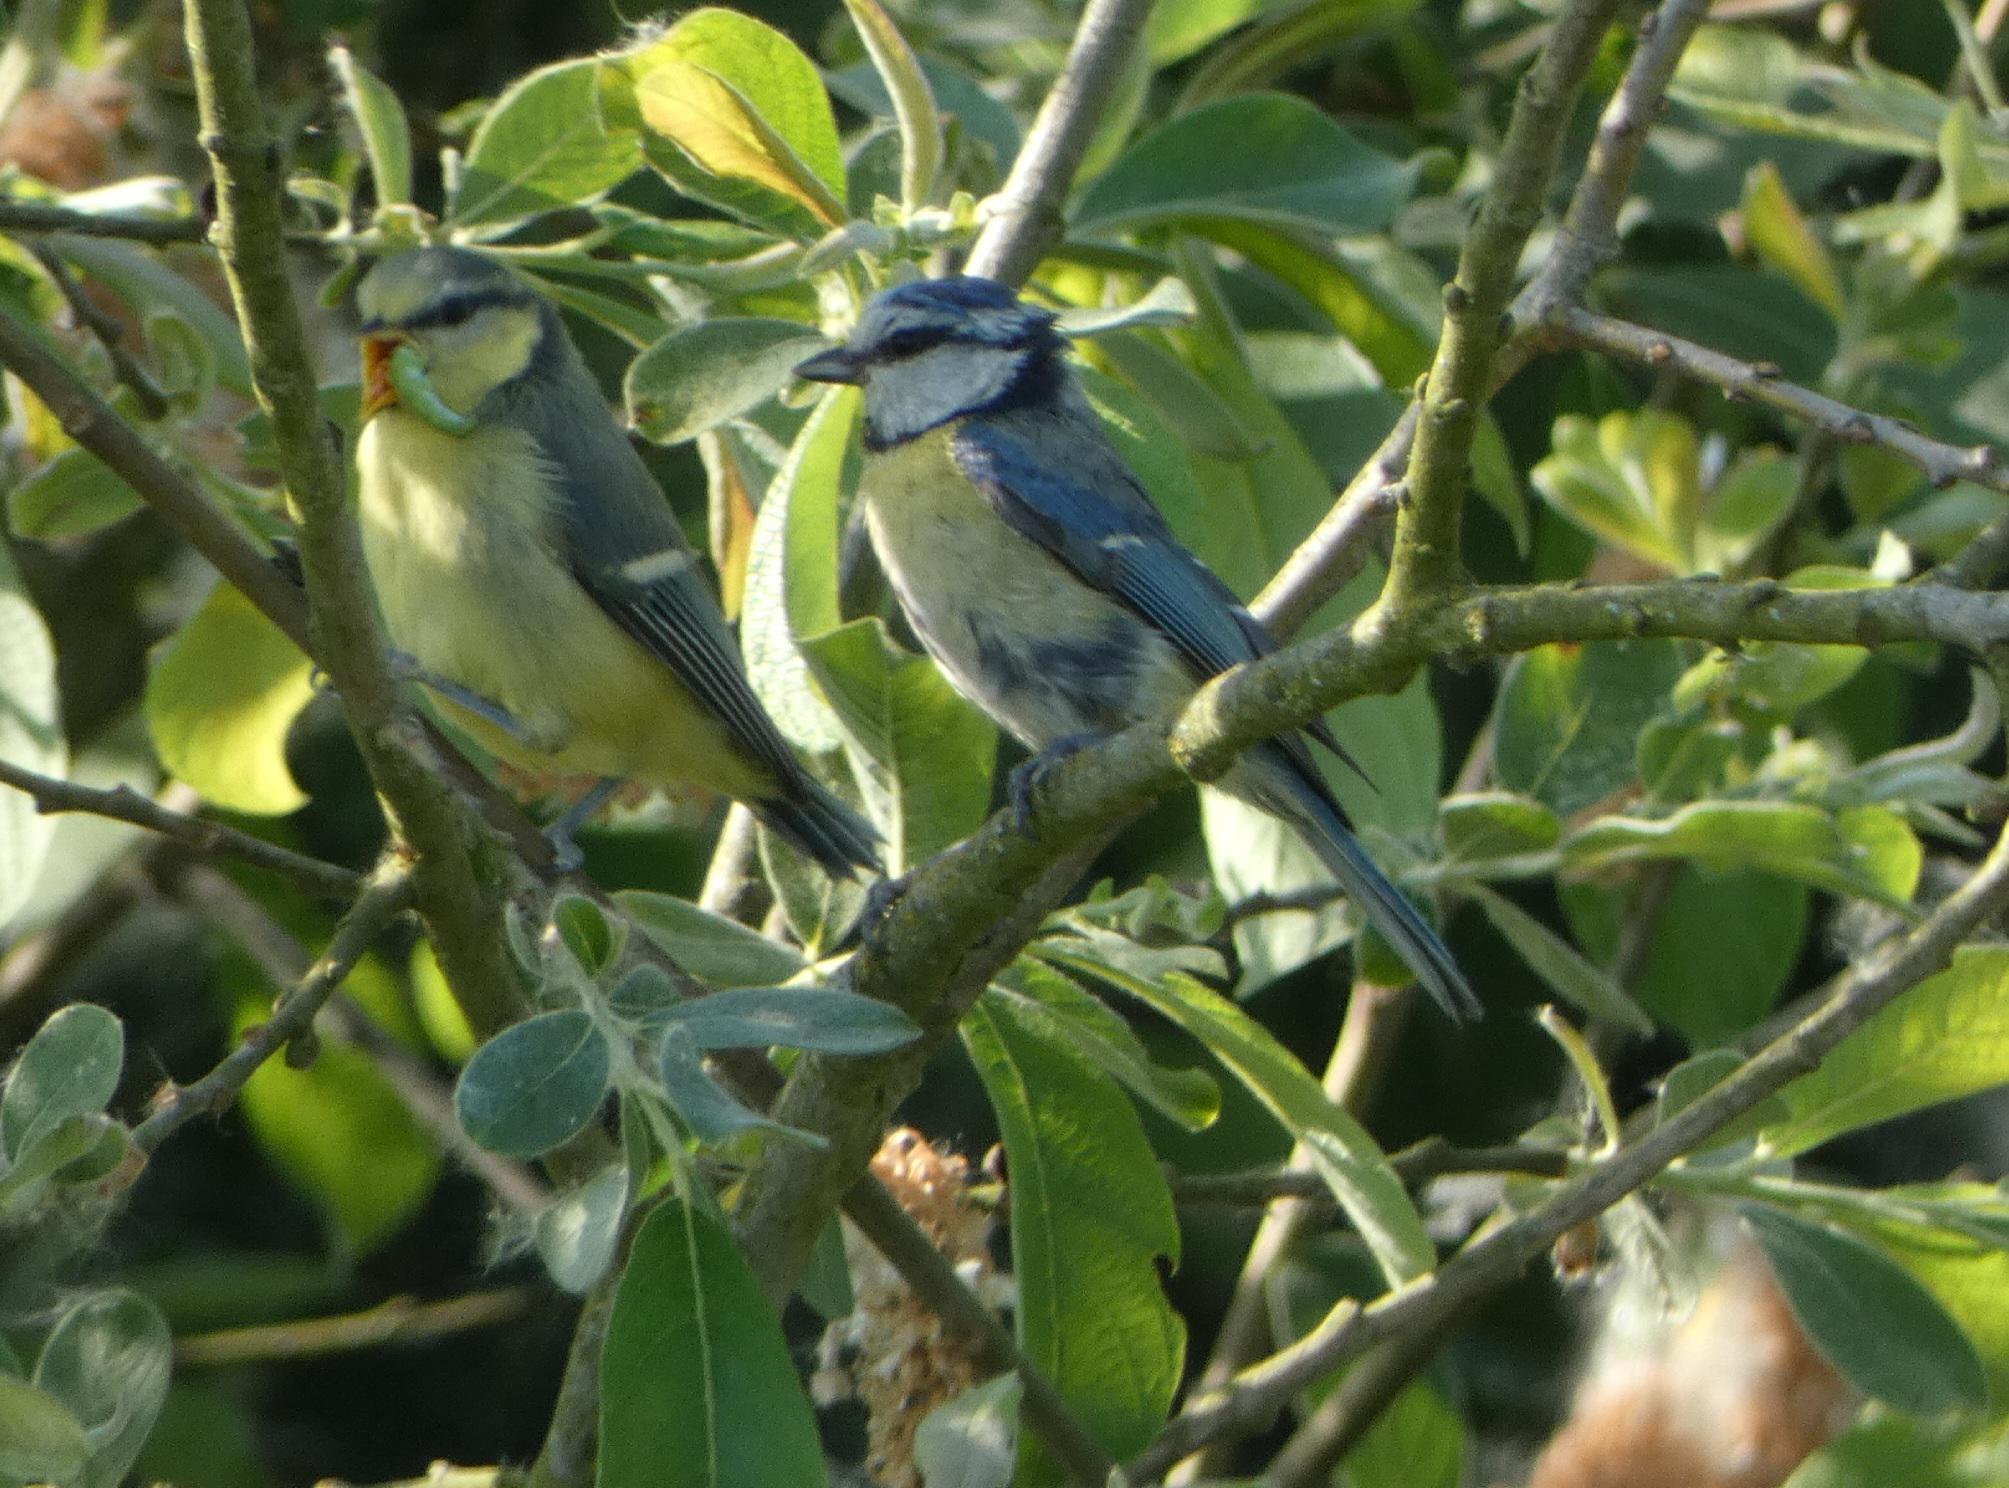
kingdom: Animalia
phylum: Chordata
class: Aves
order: Passeriformes
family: Paridae
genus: Cyanistes
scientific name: Cyanistes caeruleus
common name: Blåmejse
